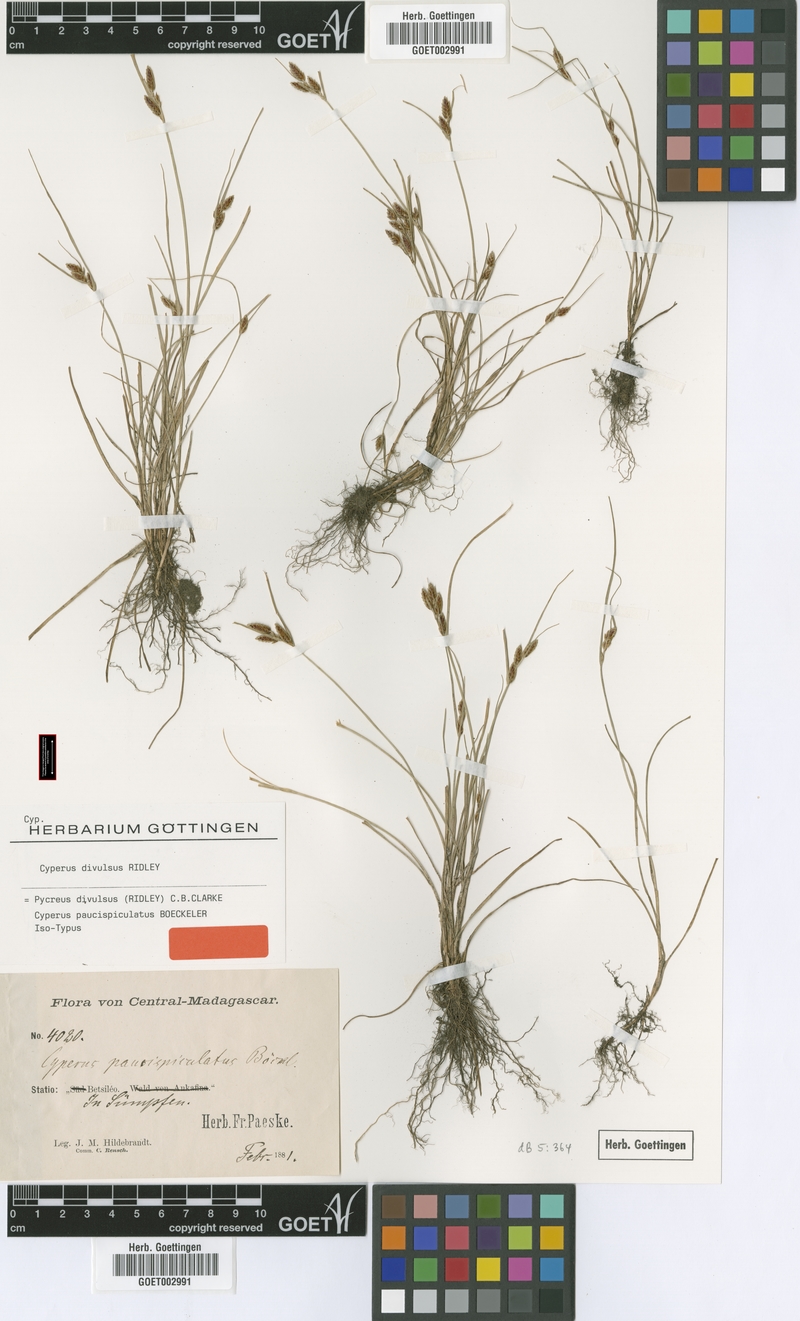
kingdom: Plantae
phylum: Tracheophyta
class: Liliopsida
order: Poales
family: Cyperaceae
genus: Cyperus
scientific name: Cyperus divulsus
